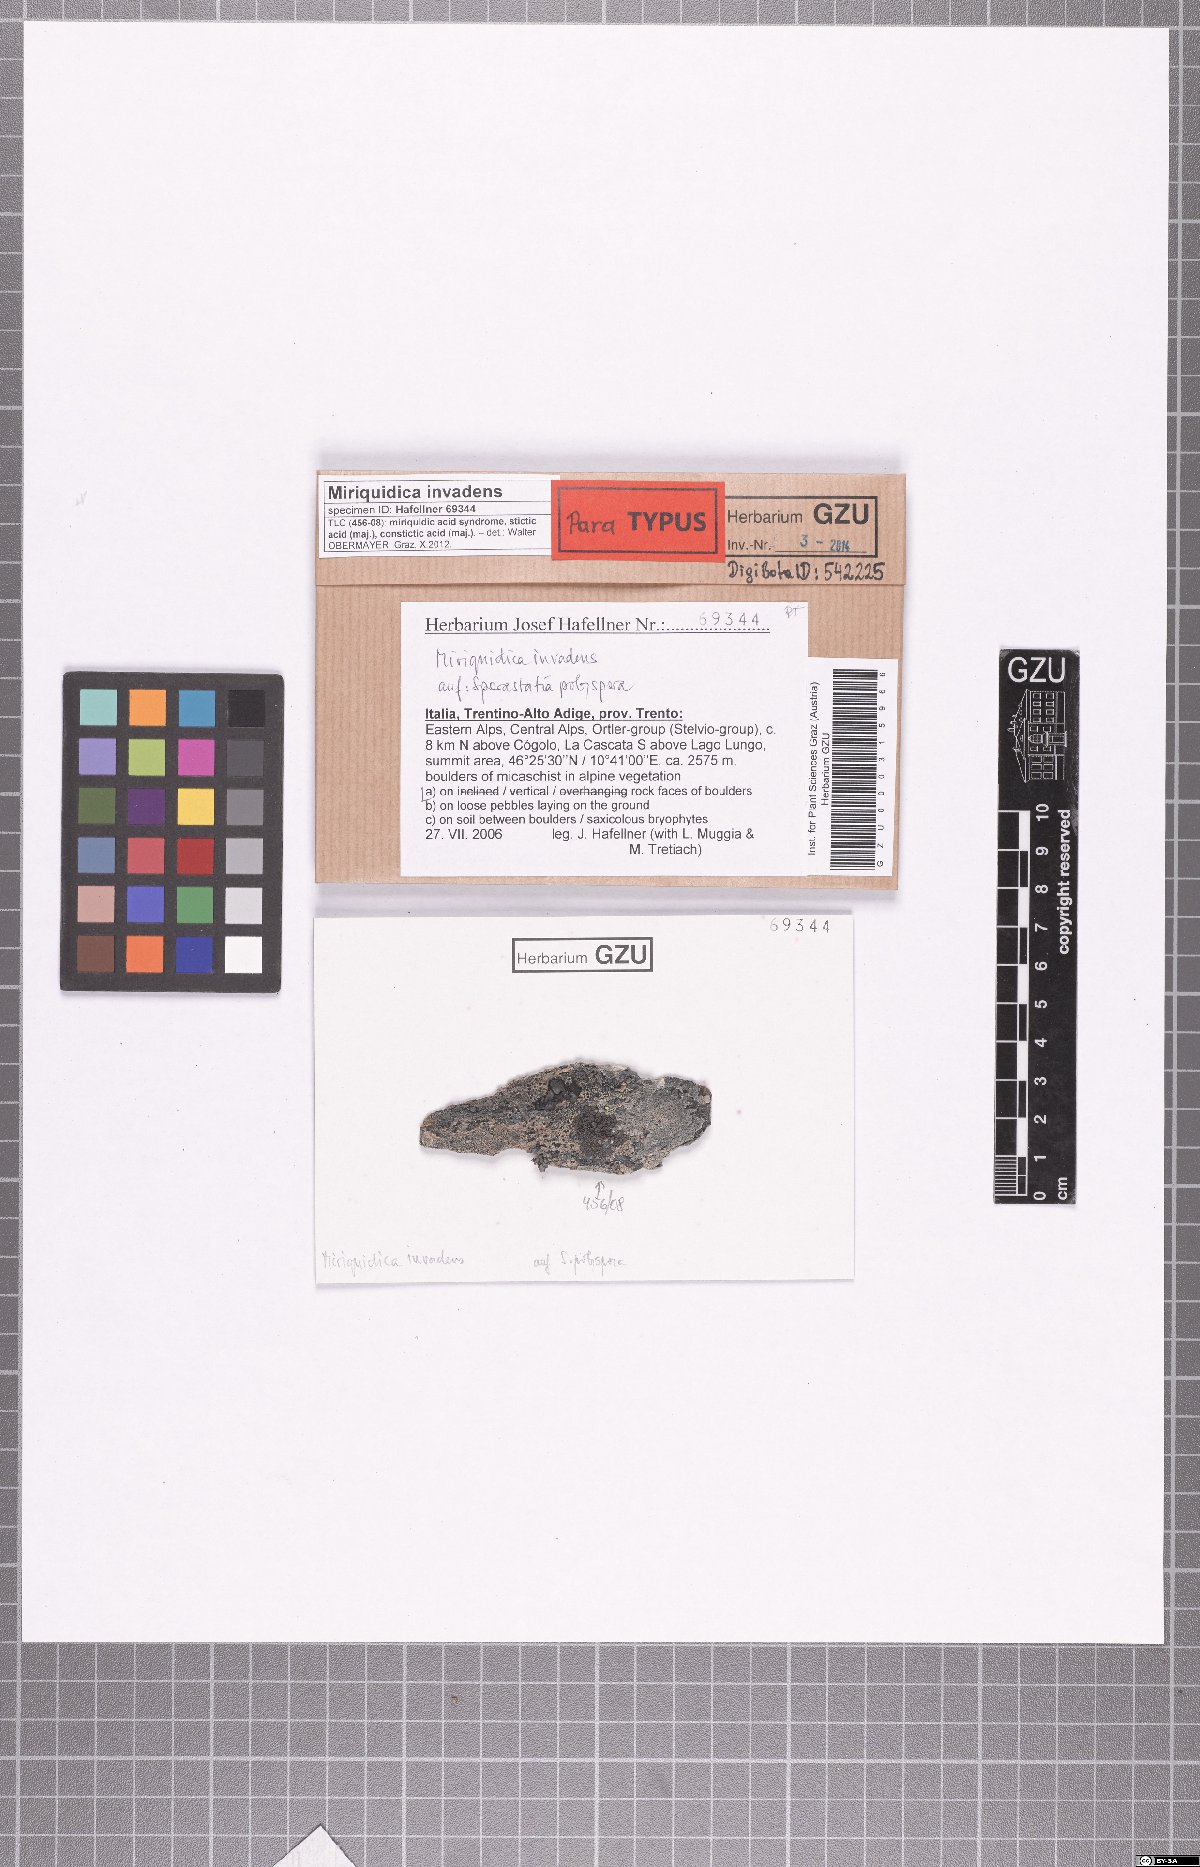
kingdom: Fungi
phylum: Ascomycota
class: Lecanoromycetes
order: Lecanorales
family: Lecanoraceae
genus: Miriquidica
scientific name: Miriquidica invadens
